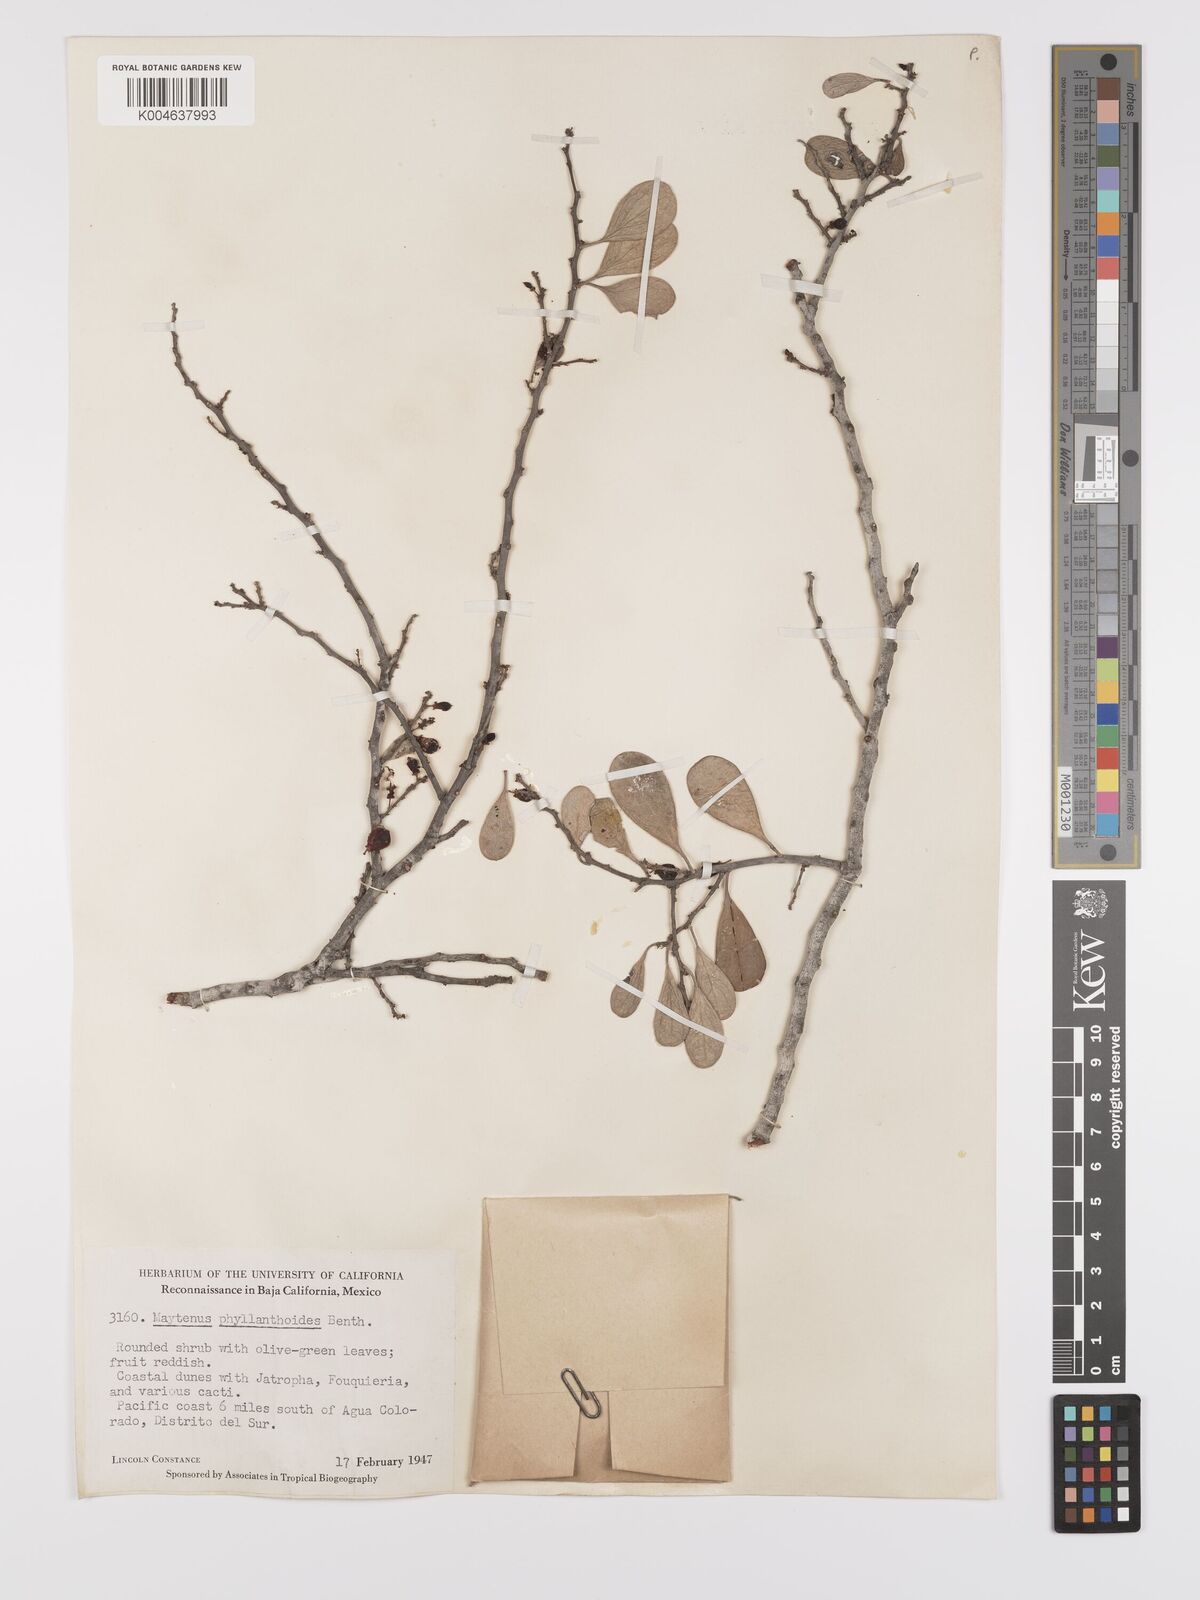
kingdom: Plantae
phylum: Tracheophyta
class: Magnoliopsida
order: Celastrales
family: Celastraceae
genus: Tricerma
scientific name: Tricerma phyllanthoides
